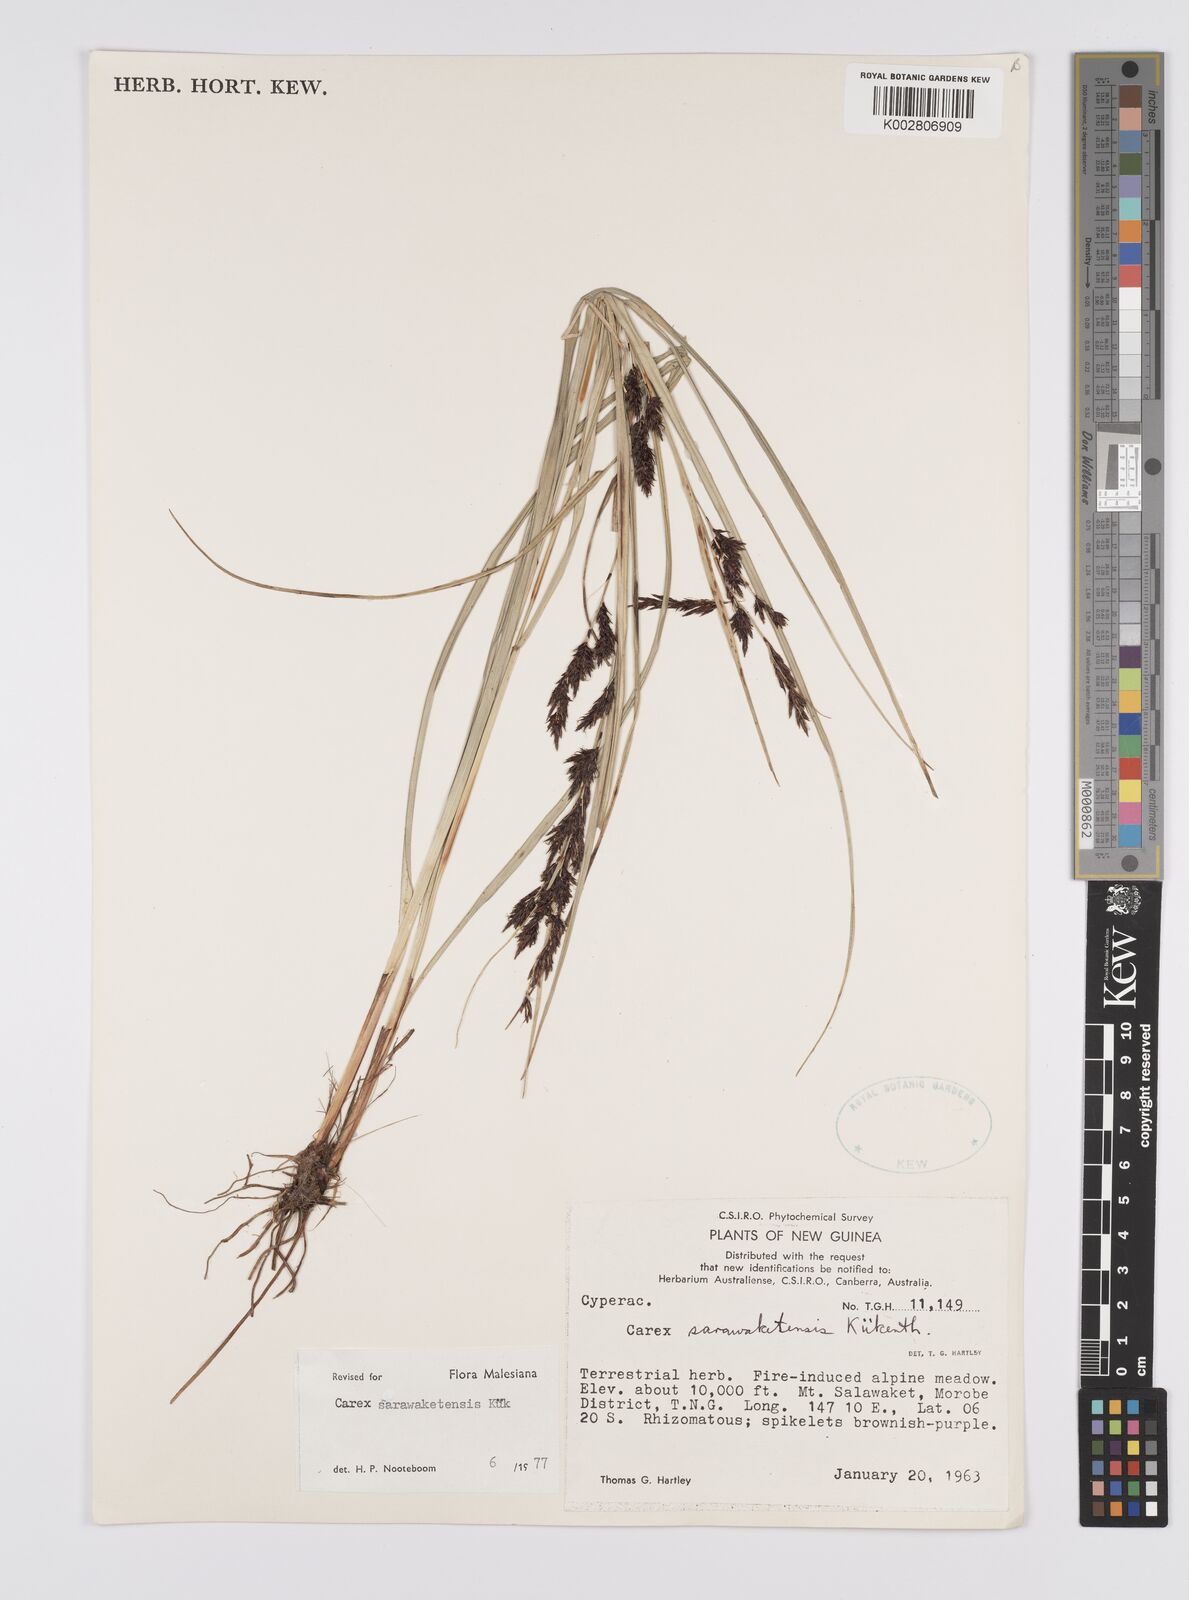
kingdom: Plantae
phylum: Tracheophyta
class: Liliopsida
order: Poales
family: Cyperaceae
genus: Carex
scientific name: Carex sarawaketensis
